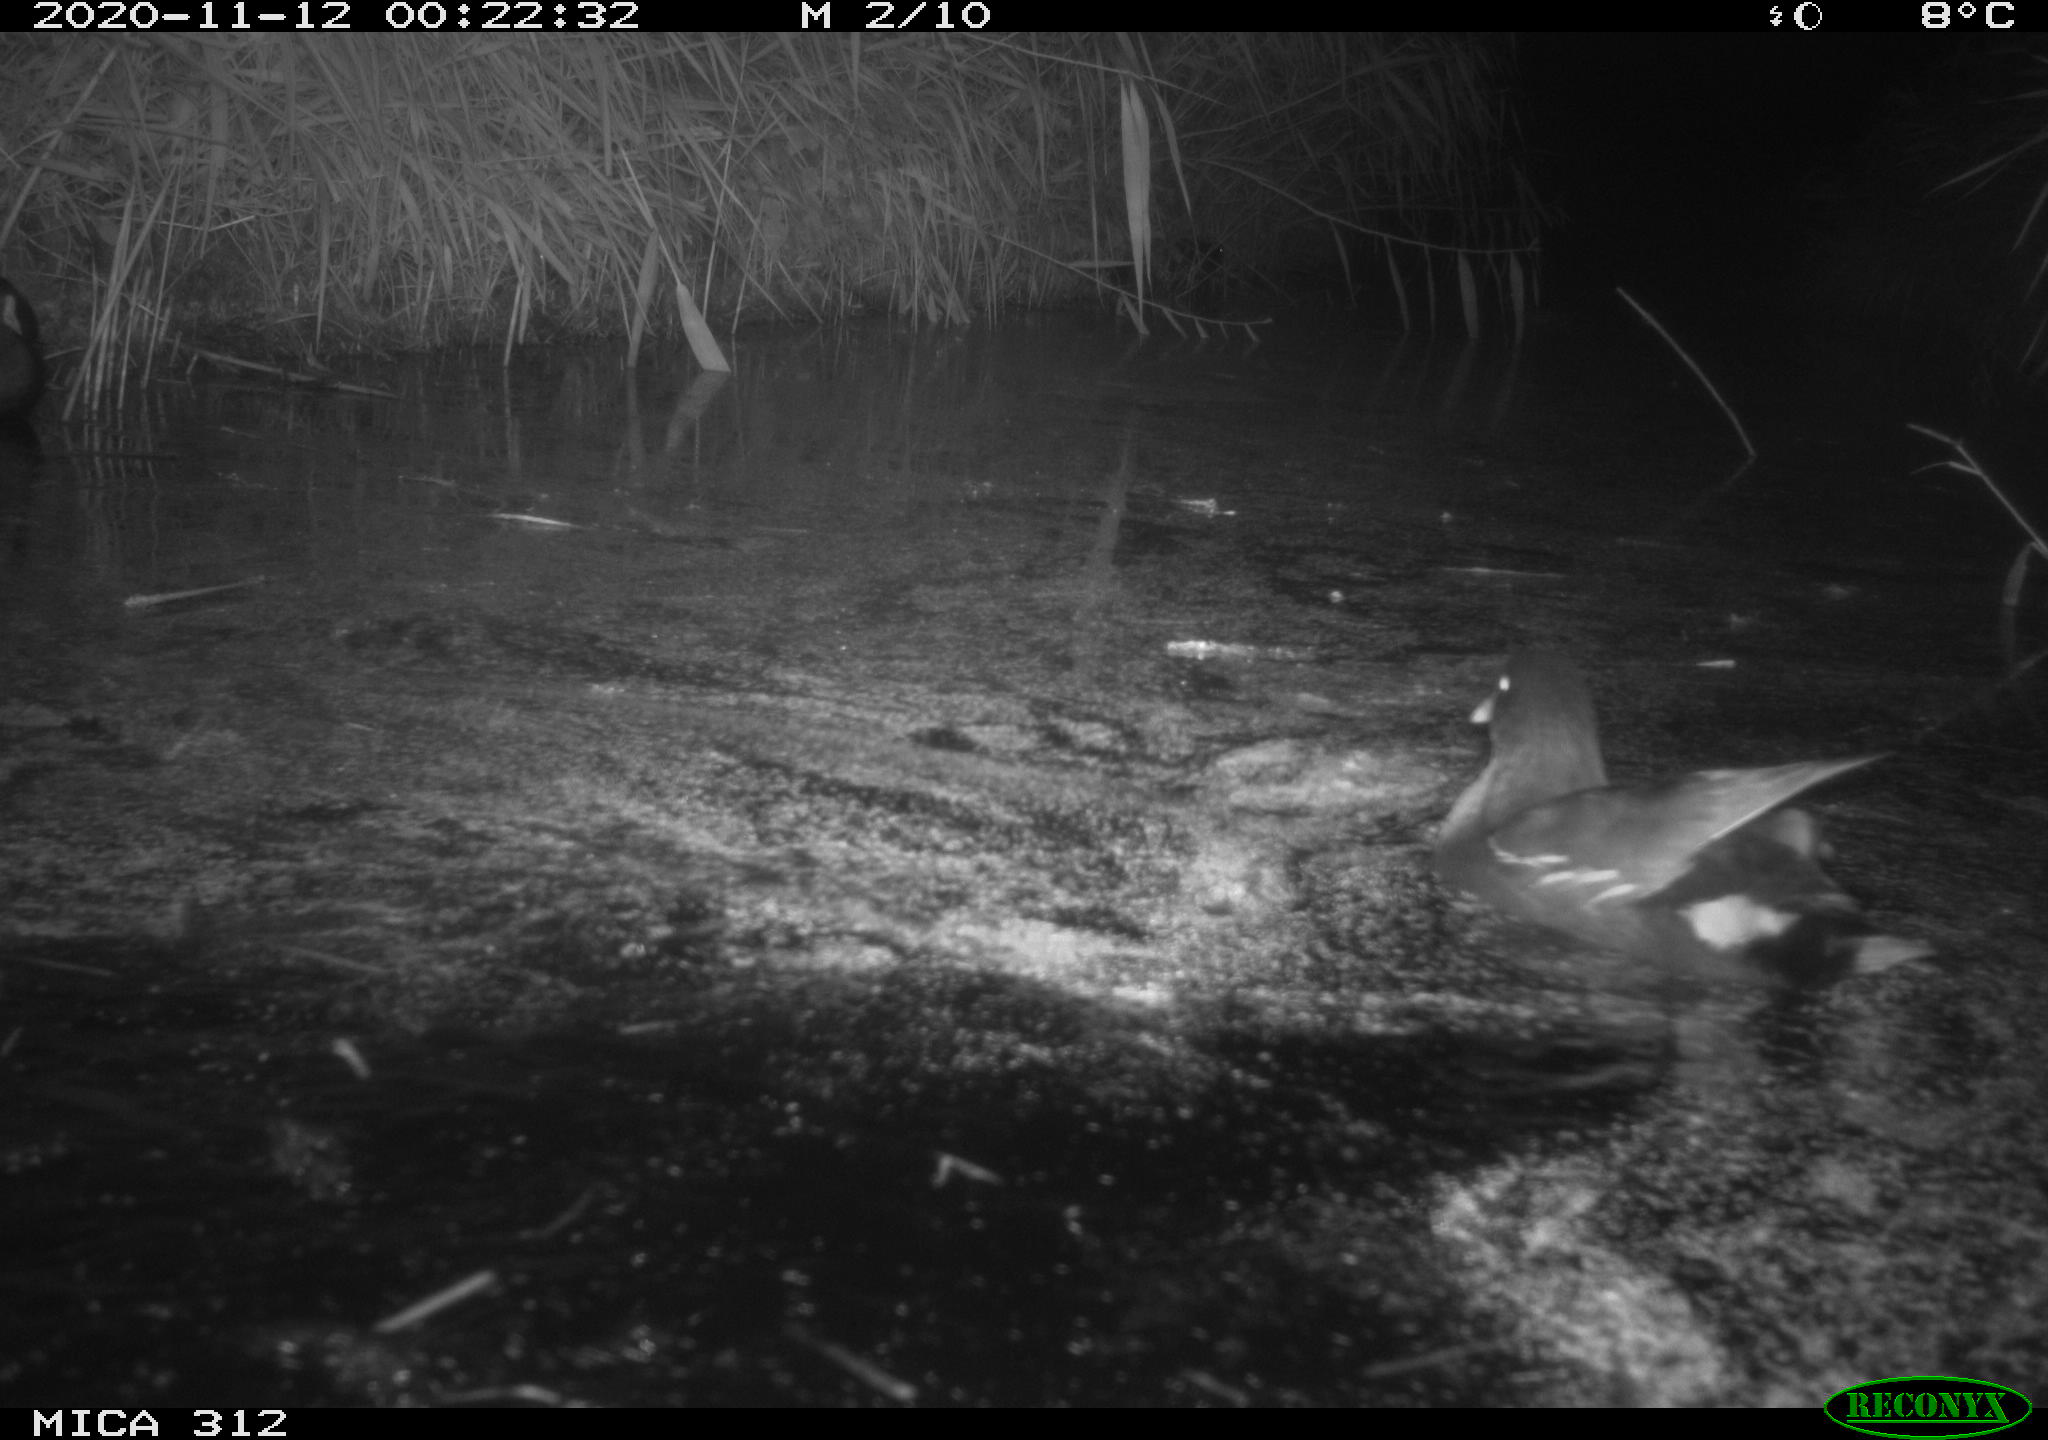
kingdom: Animalia
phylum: Chordata
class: Aves
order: Gruiformes
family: Rallidae
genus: Fulica
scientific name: Fulica atra
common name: Eurasian coot
